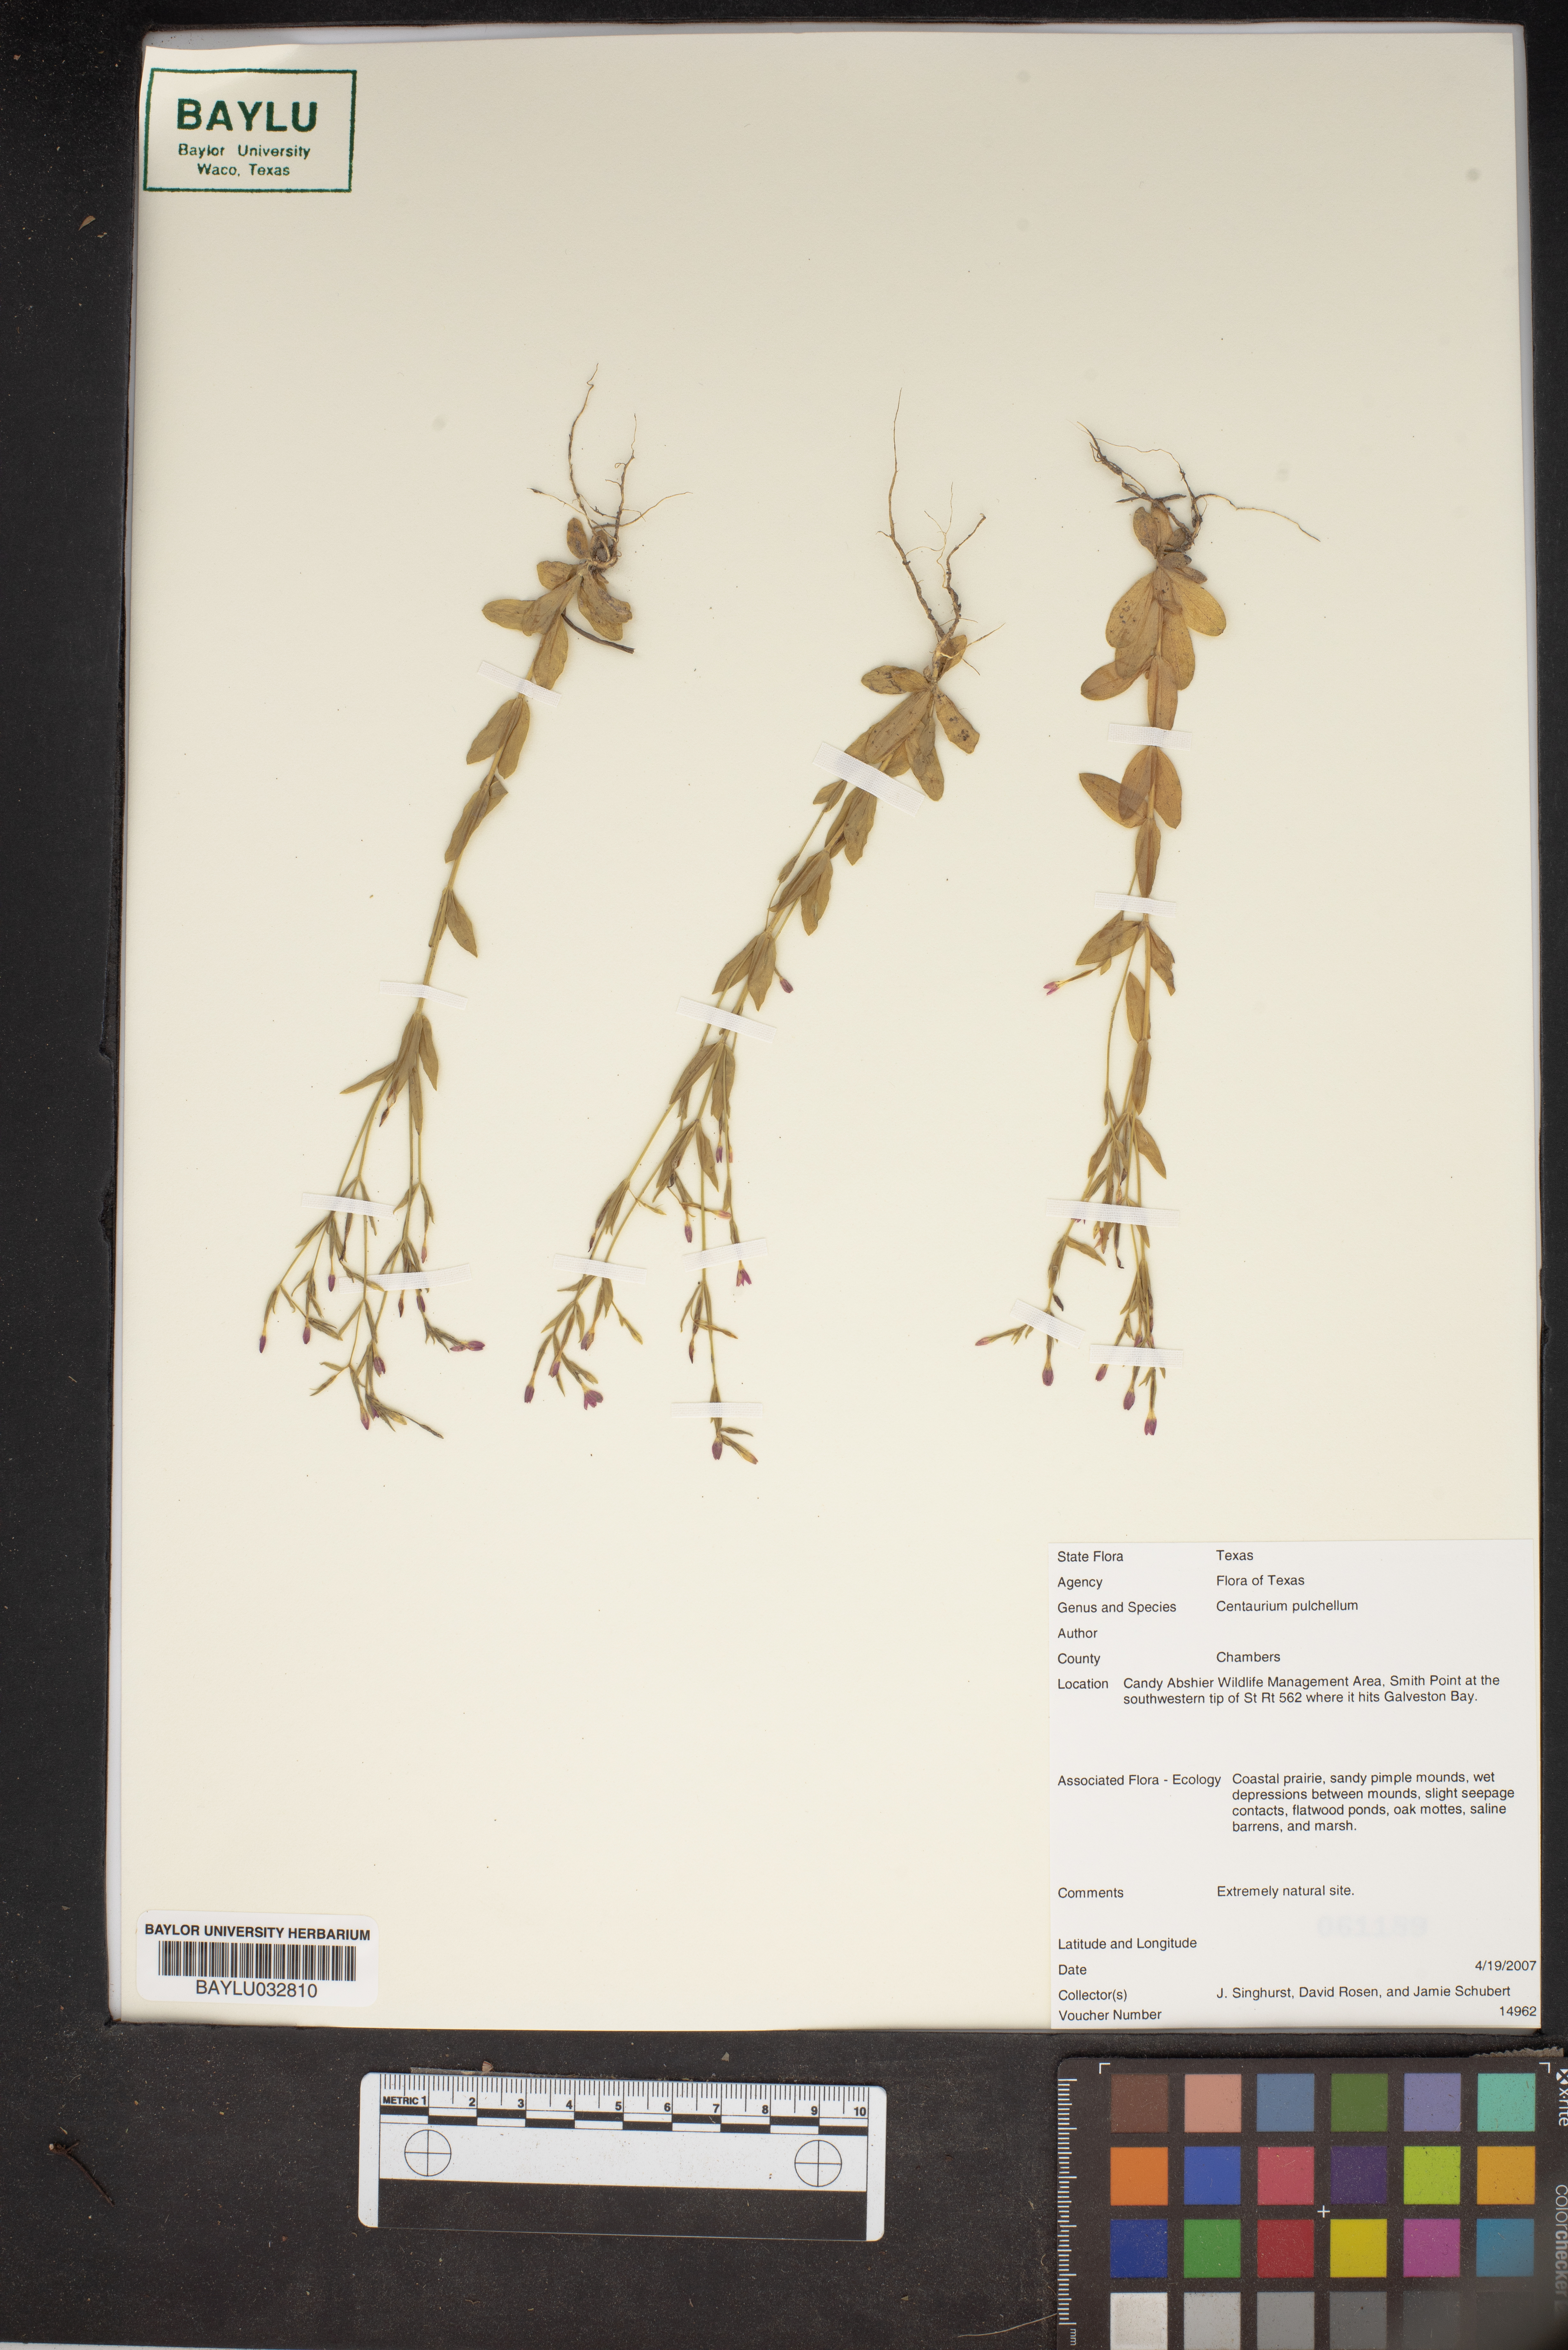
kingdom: Plantae
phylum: Tracheophyta
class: Magnoliopsida
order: Gentianales
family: Gentianaceae
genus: Centaurium
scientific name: Centaurium pulchellum
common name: Lesser centaury
